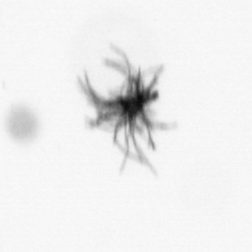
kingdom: Bacteria
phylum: Cyanobacteria
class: Cyanobacteriia
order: Cyanobacteriales
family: Microcoleaceae
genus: Trichodesmium
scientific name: Trichodesmium
